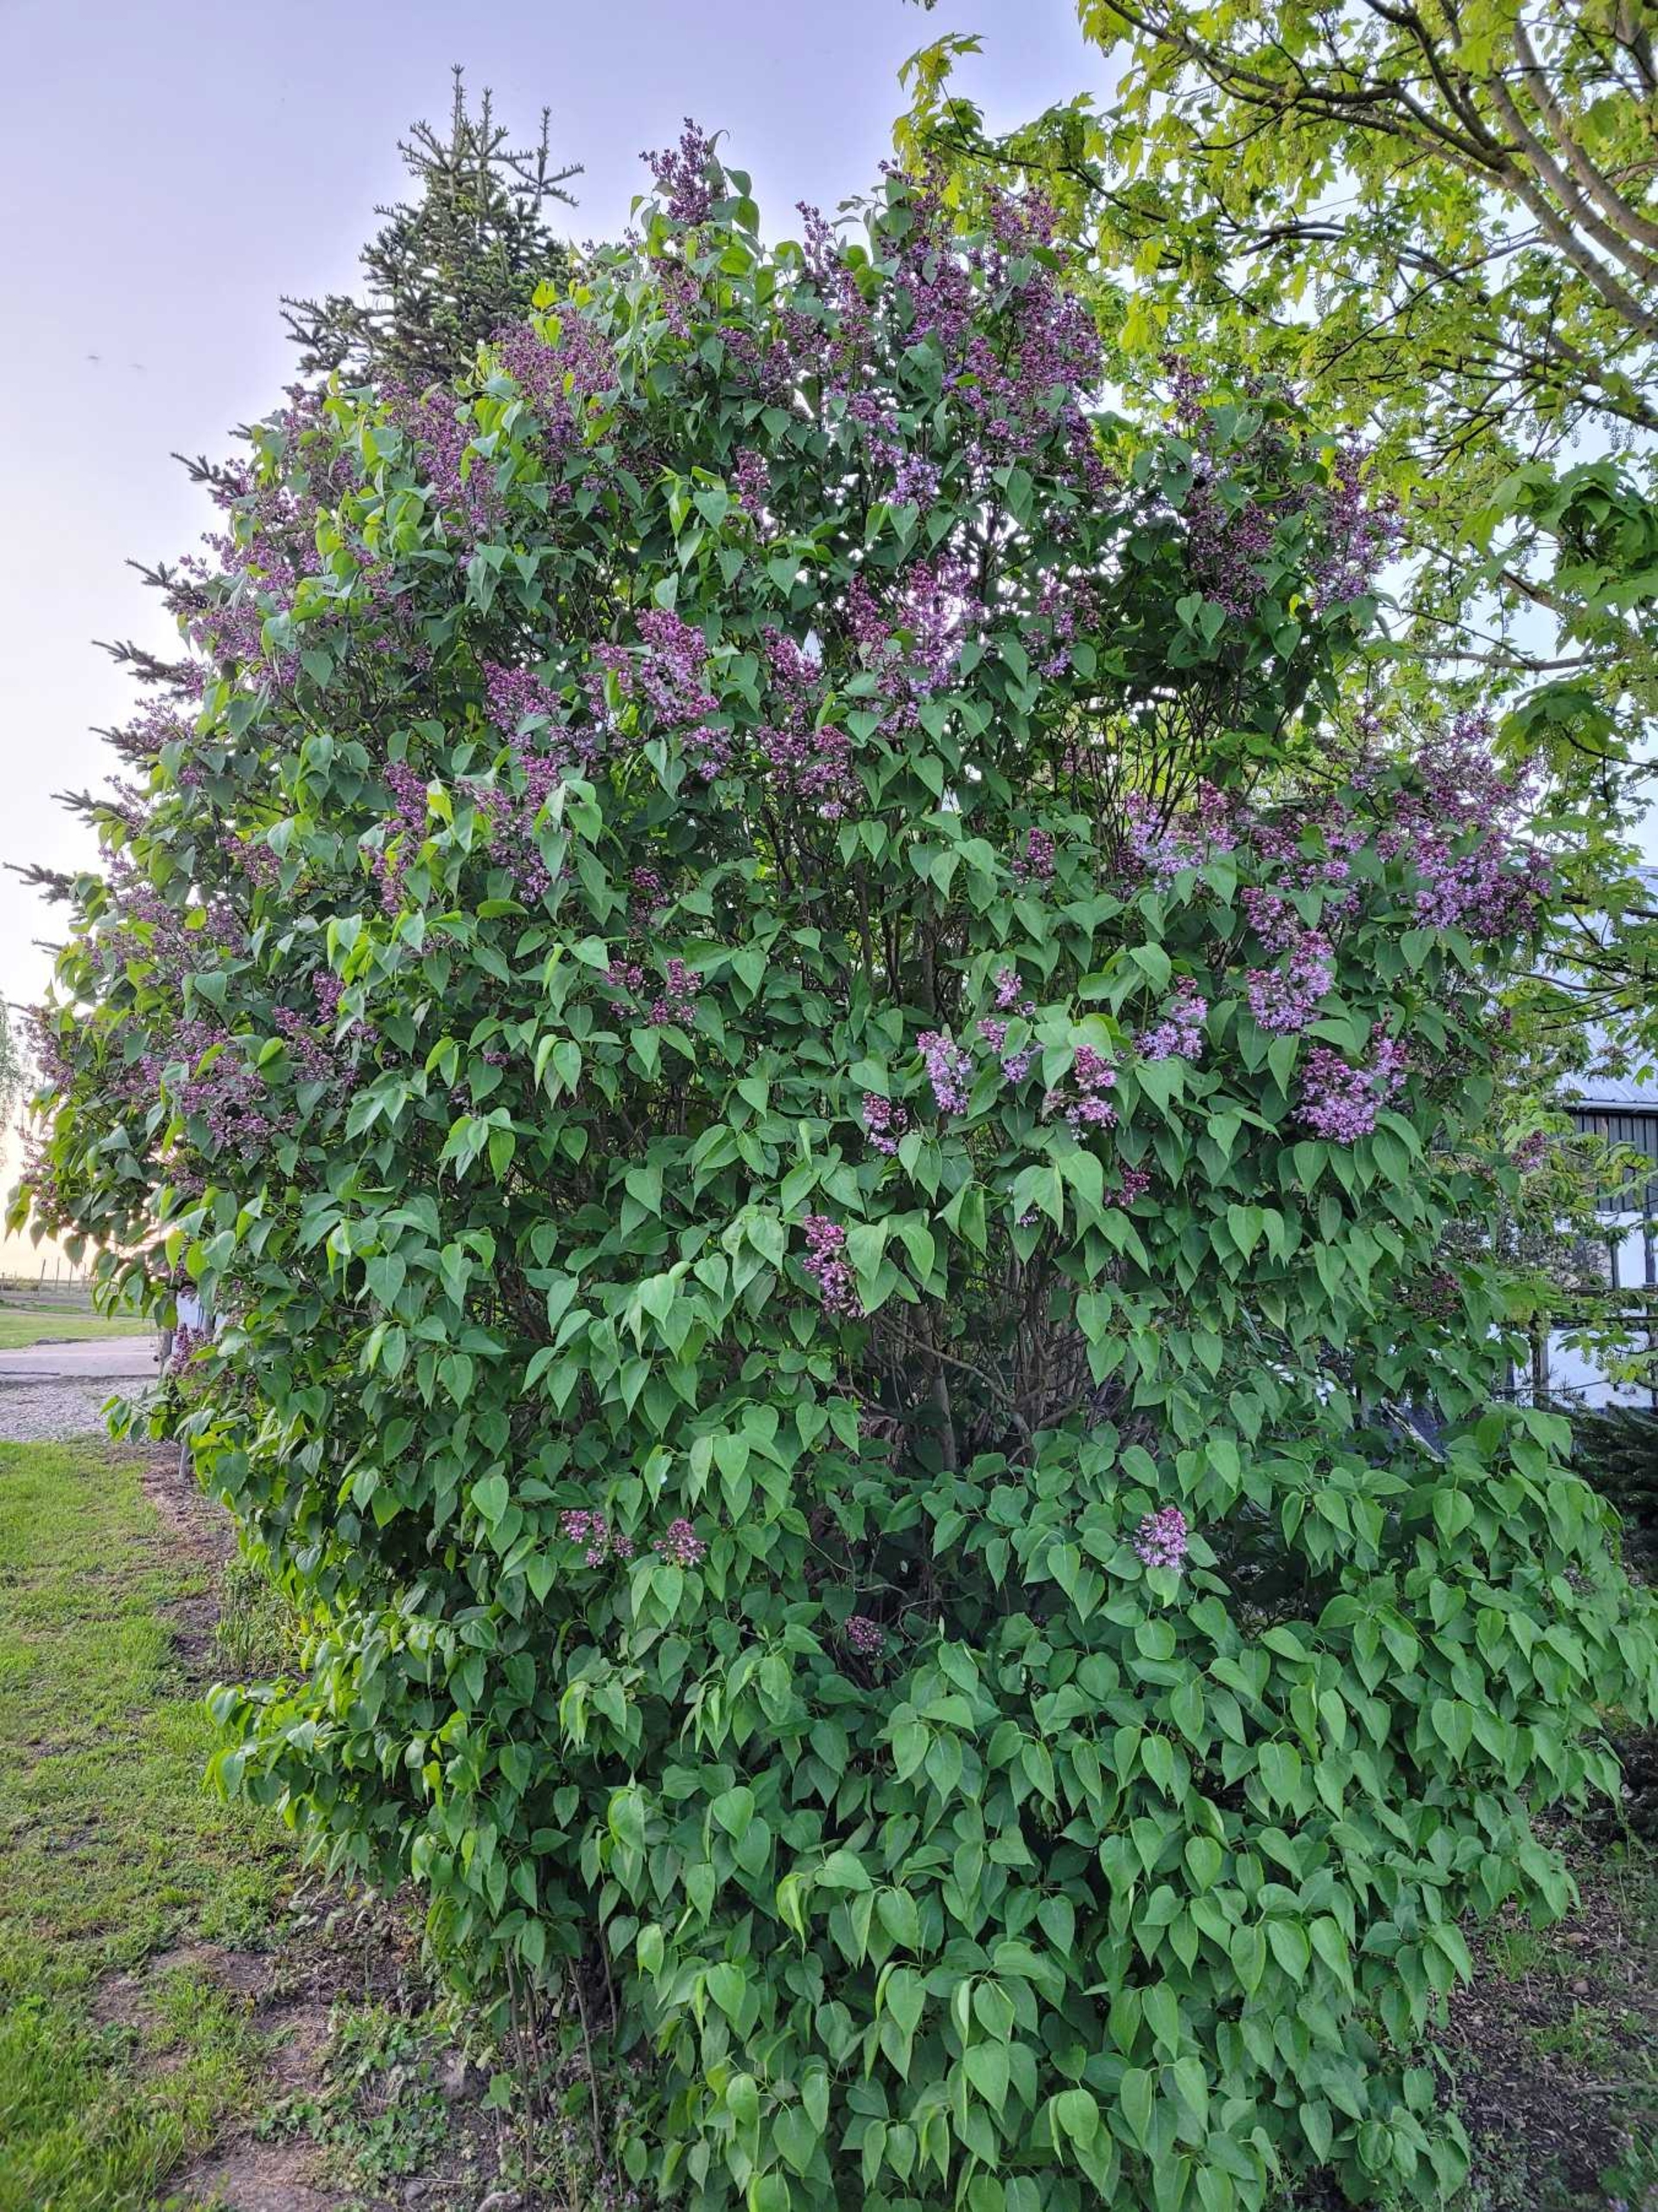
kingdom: Plantae
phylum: Tracheophyta
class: Magnoliopsida
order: Lamiales
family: Oleaceae
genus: Syringa
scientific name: Syringa vulgaris
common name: Syren
